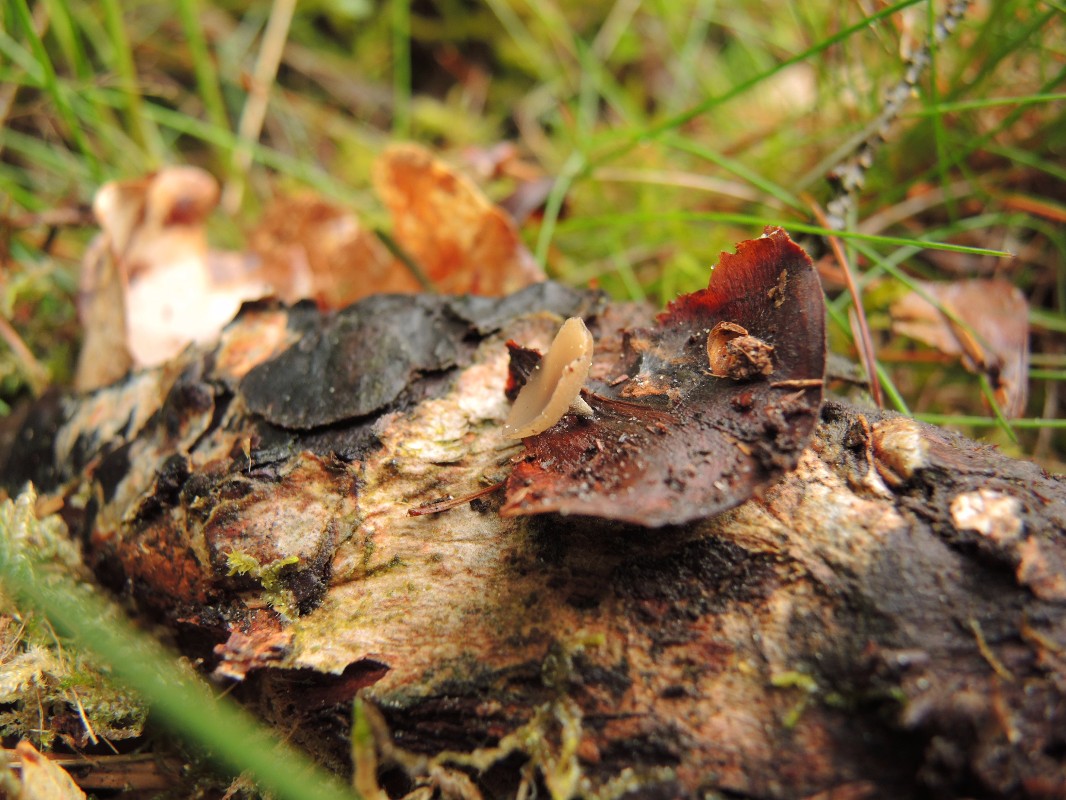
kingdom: Fungi
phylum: Ascomycota
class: Leotiomycetes
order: Helotiales
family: Sclerotiniaceae
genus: Ciboria
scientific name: Ciboria rufofusca
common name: kogleskæl-knoldskive
